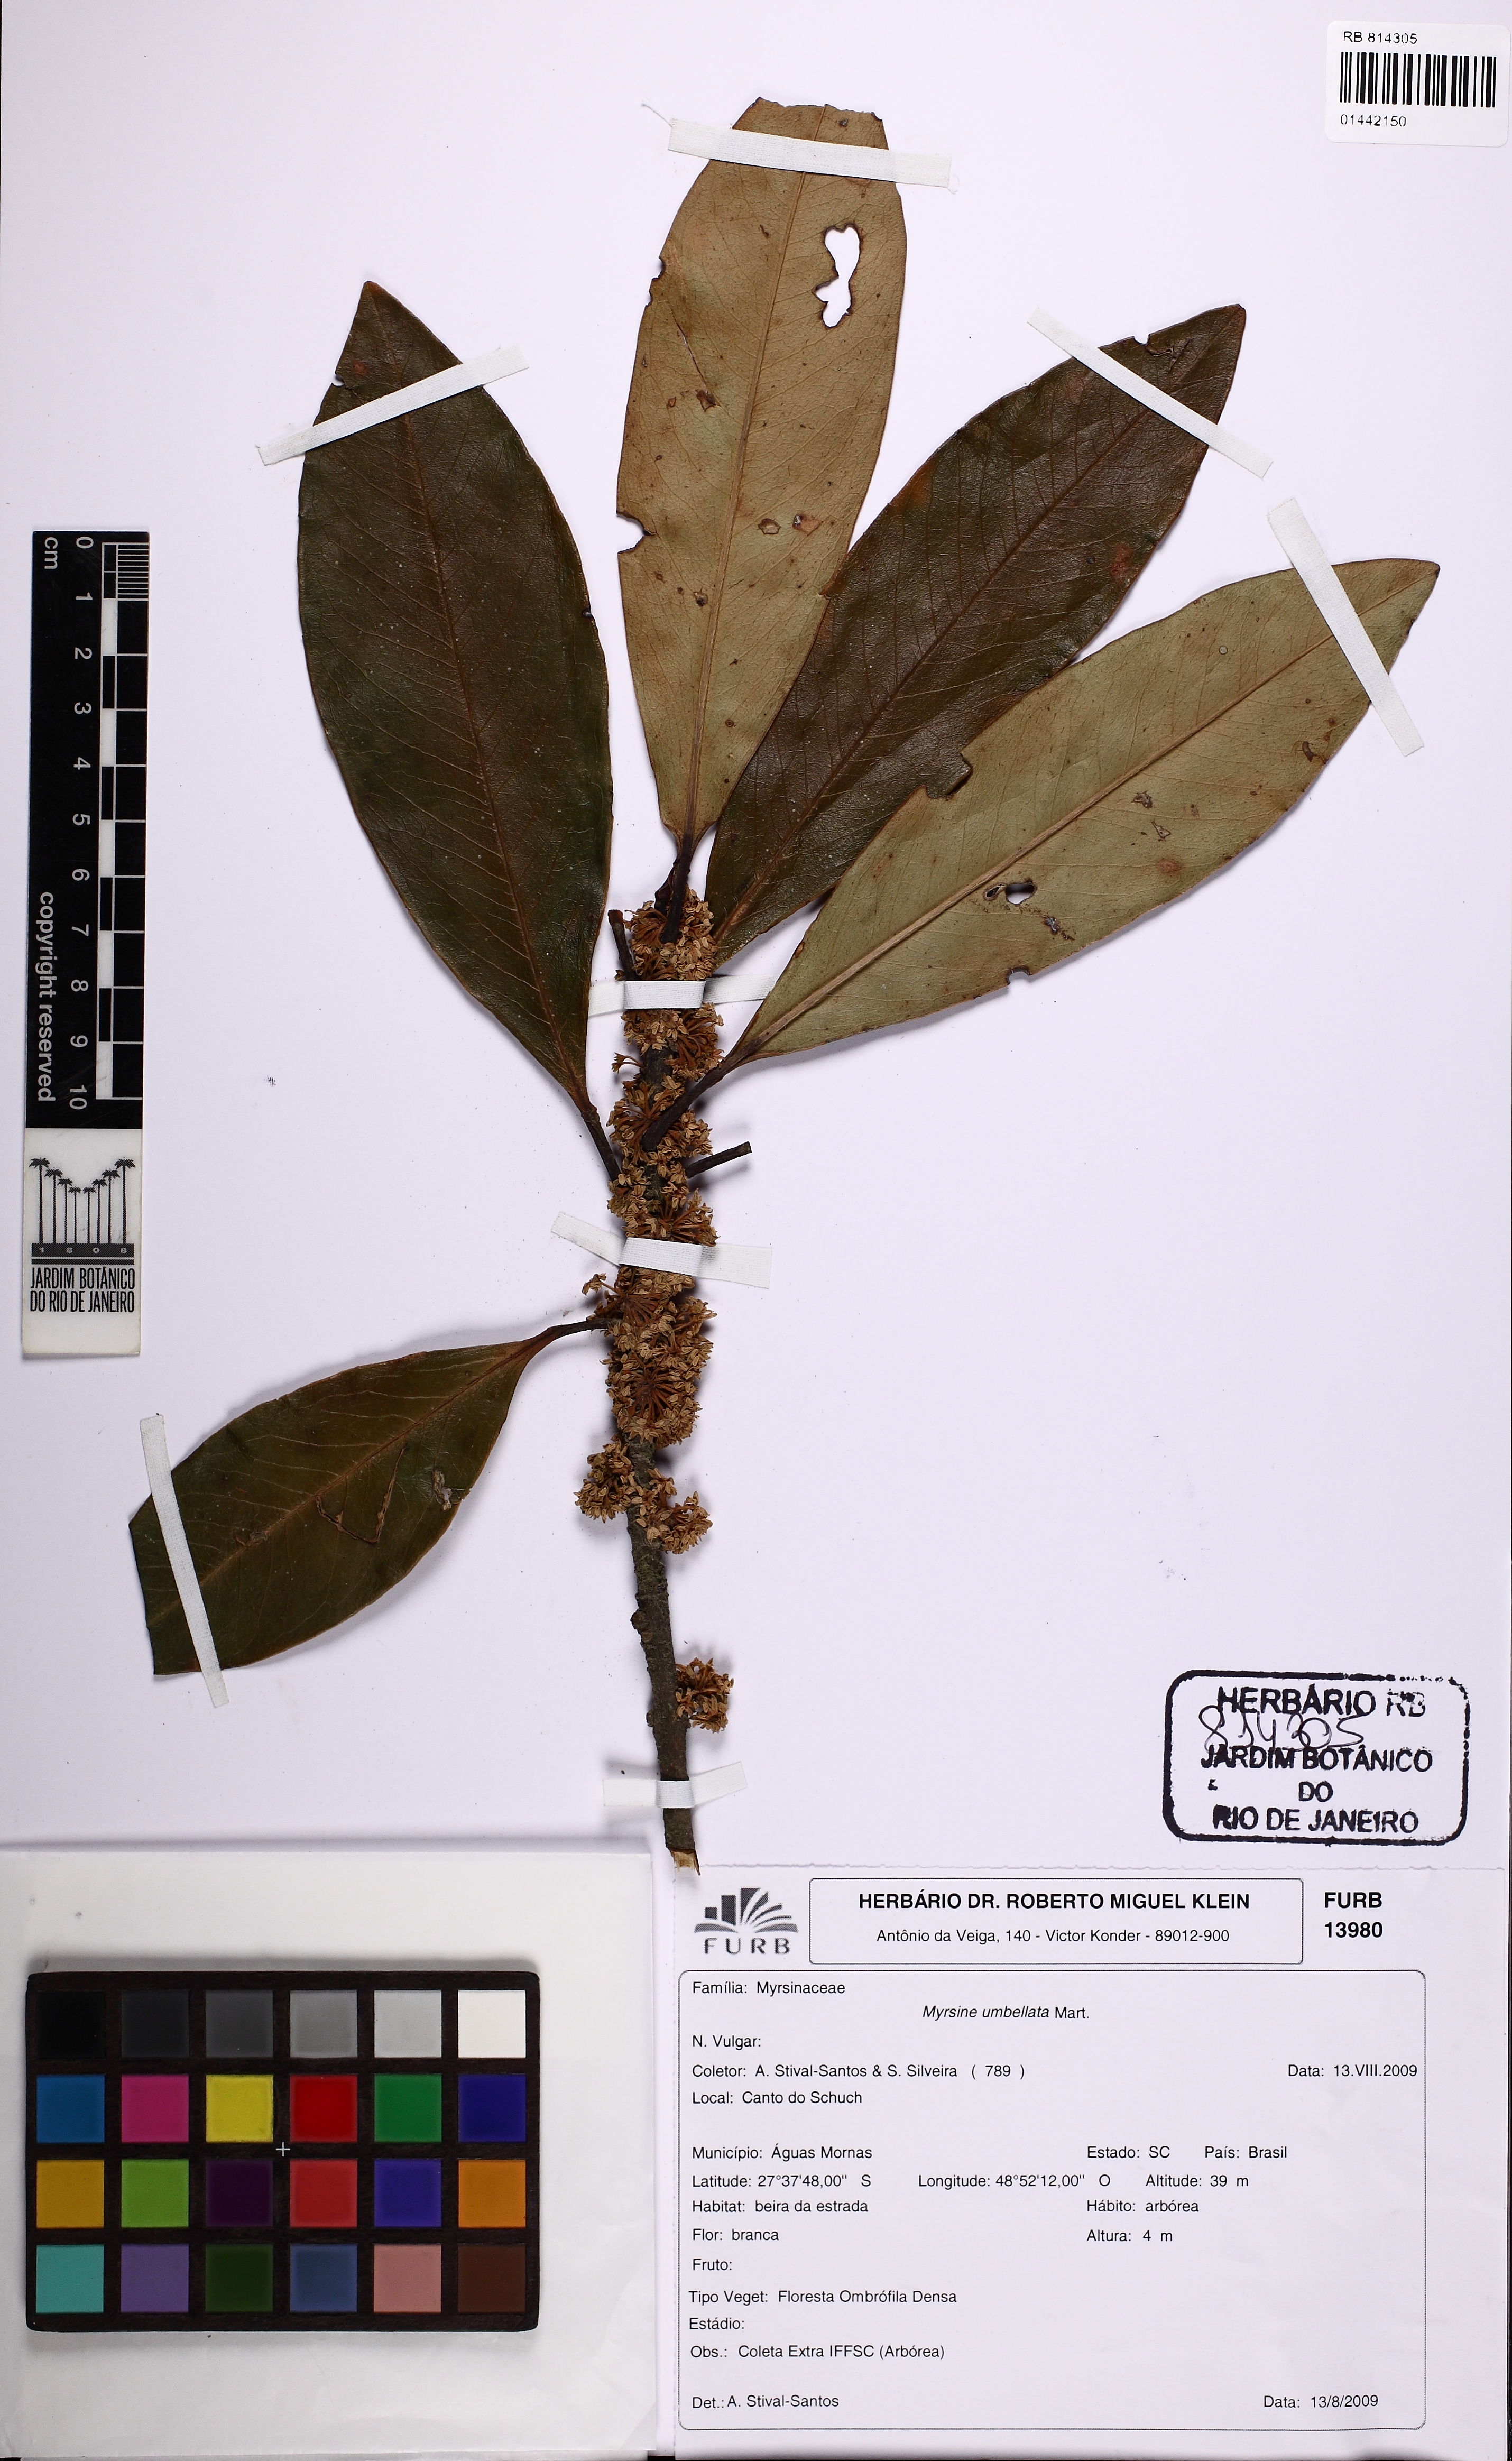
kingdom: Plantae
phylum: Tracheophyta
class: Magnoliopsida
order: Ericales
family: Primulaceae
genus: Myrsine
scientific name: Myrsine umbellata
